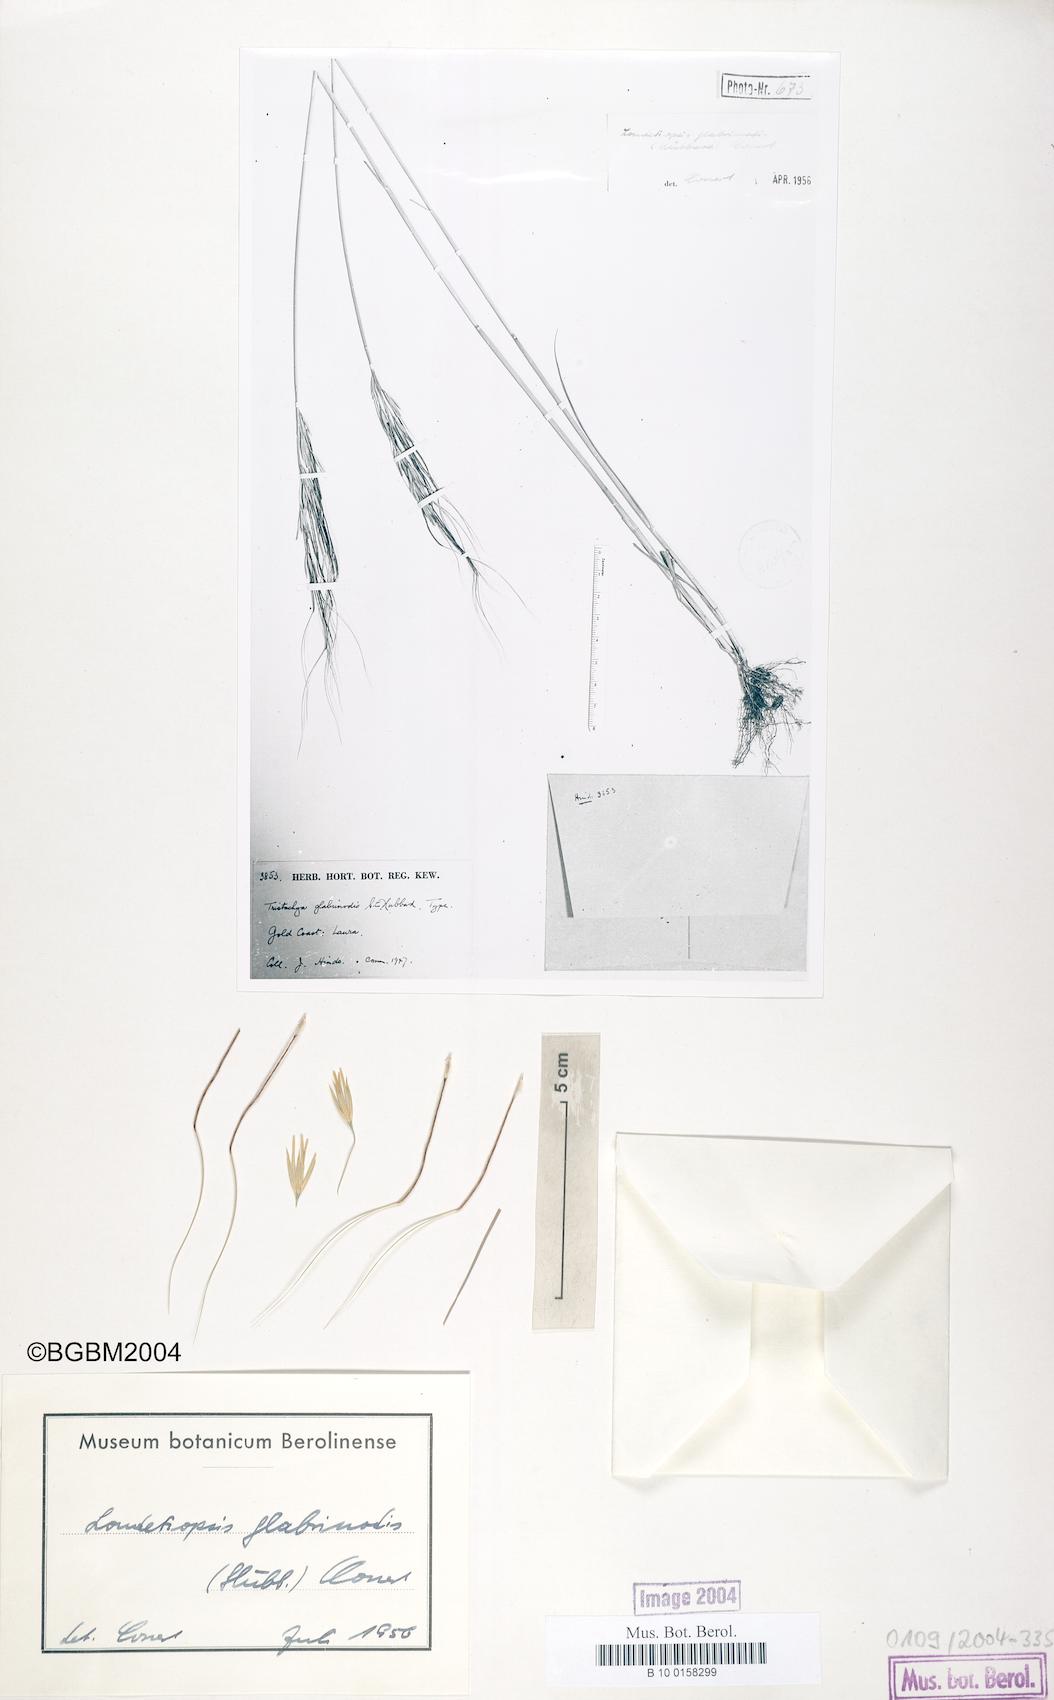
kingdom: Plantae
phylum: Tracheophyta
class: Liliopsida
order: Poales
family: Poaceae
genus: Loudetiopsis
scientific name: Loudetiopsis kerstingii
